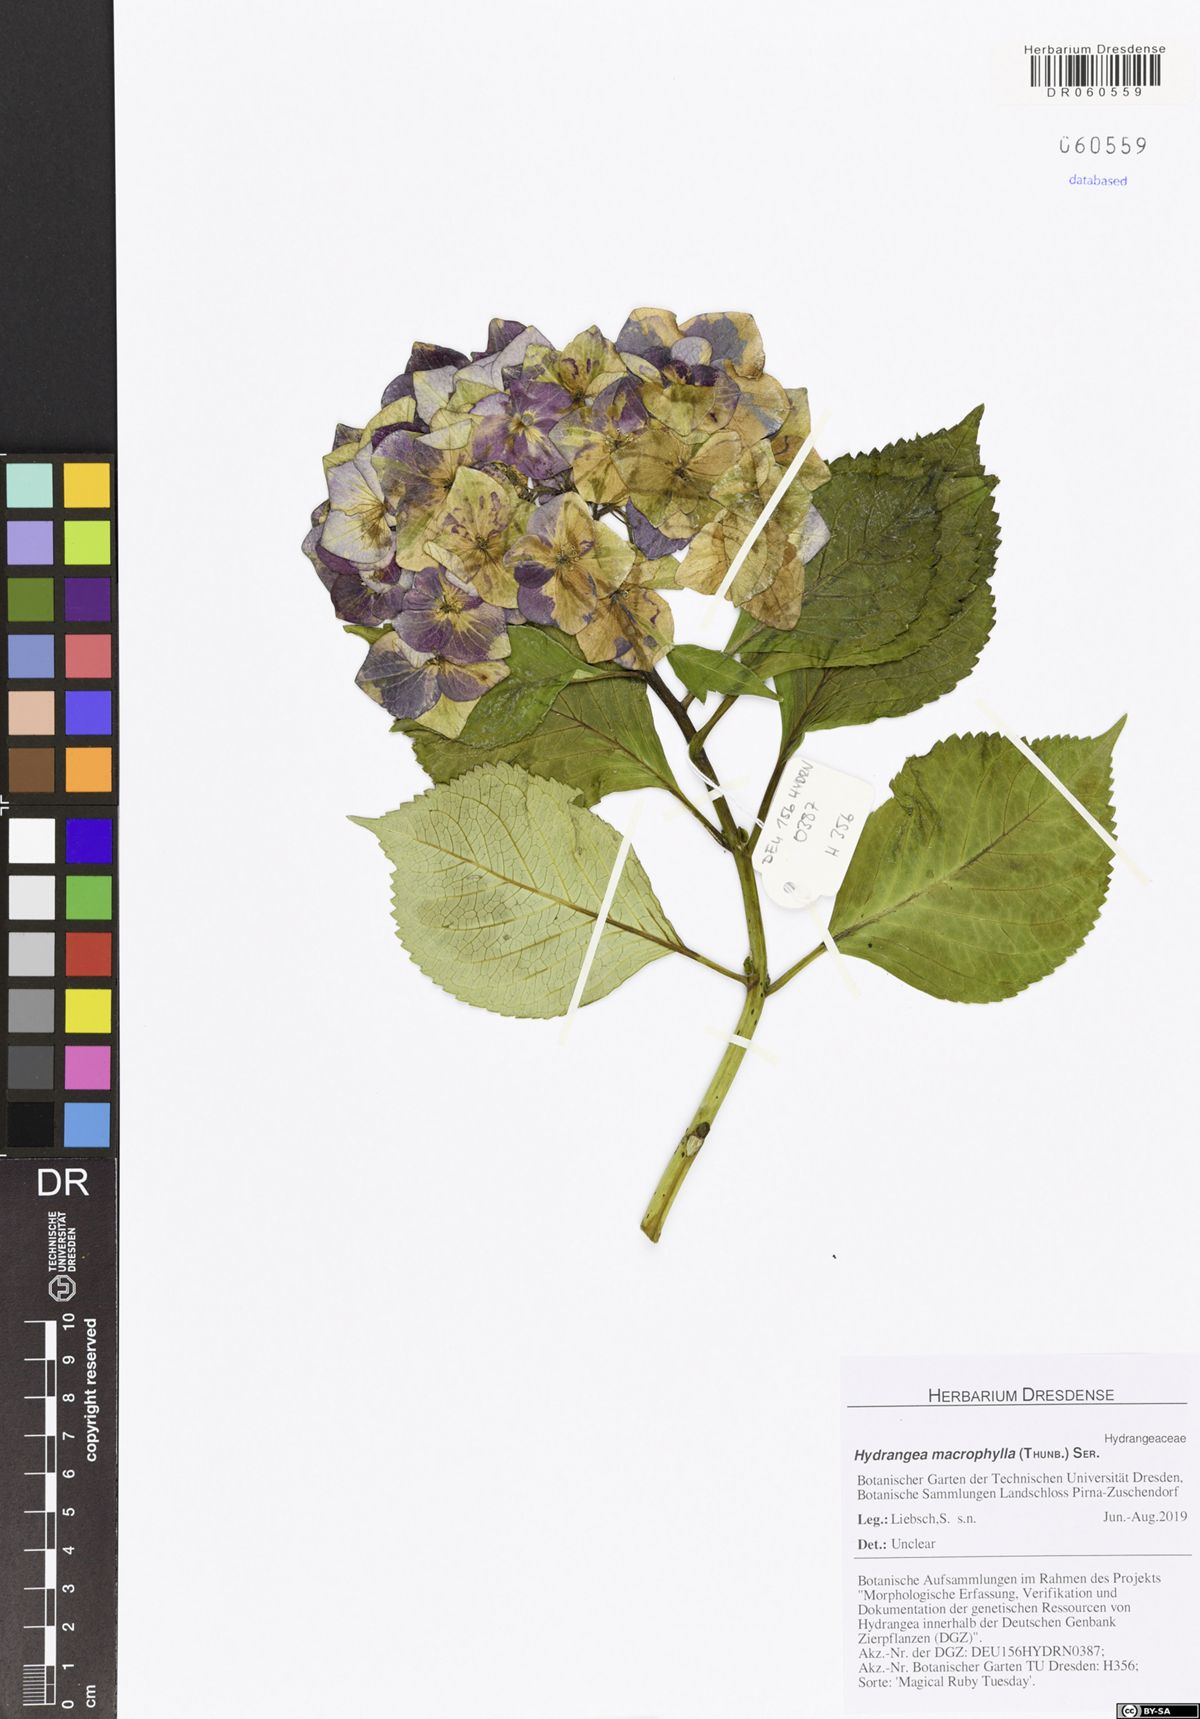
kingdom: Plantae
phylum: Tracheophyta
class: Magnoliopsida
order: Cornales
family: Hydrangeaceae
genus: Hydrangea
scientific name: Hydrangea macrophylla
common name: Hydrangea
